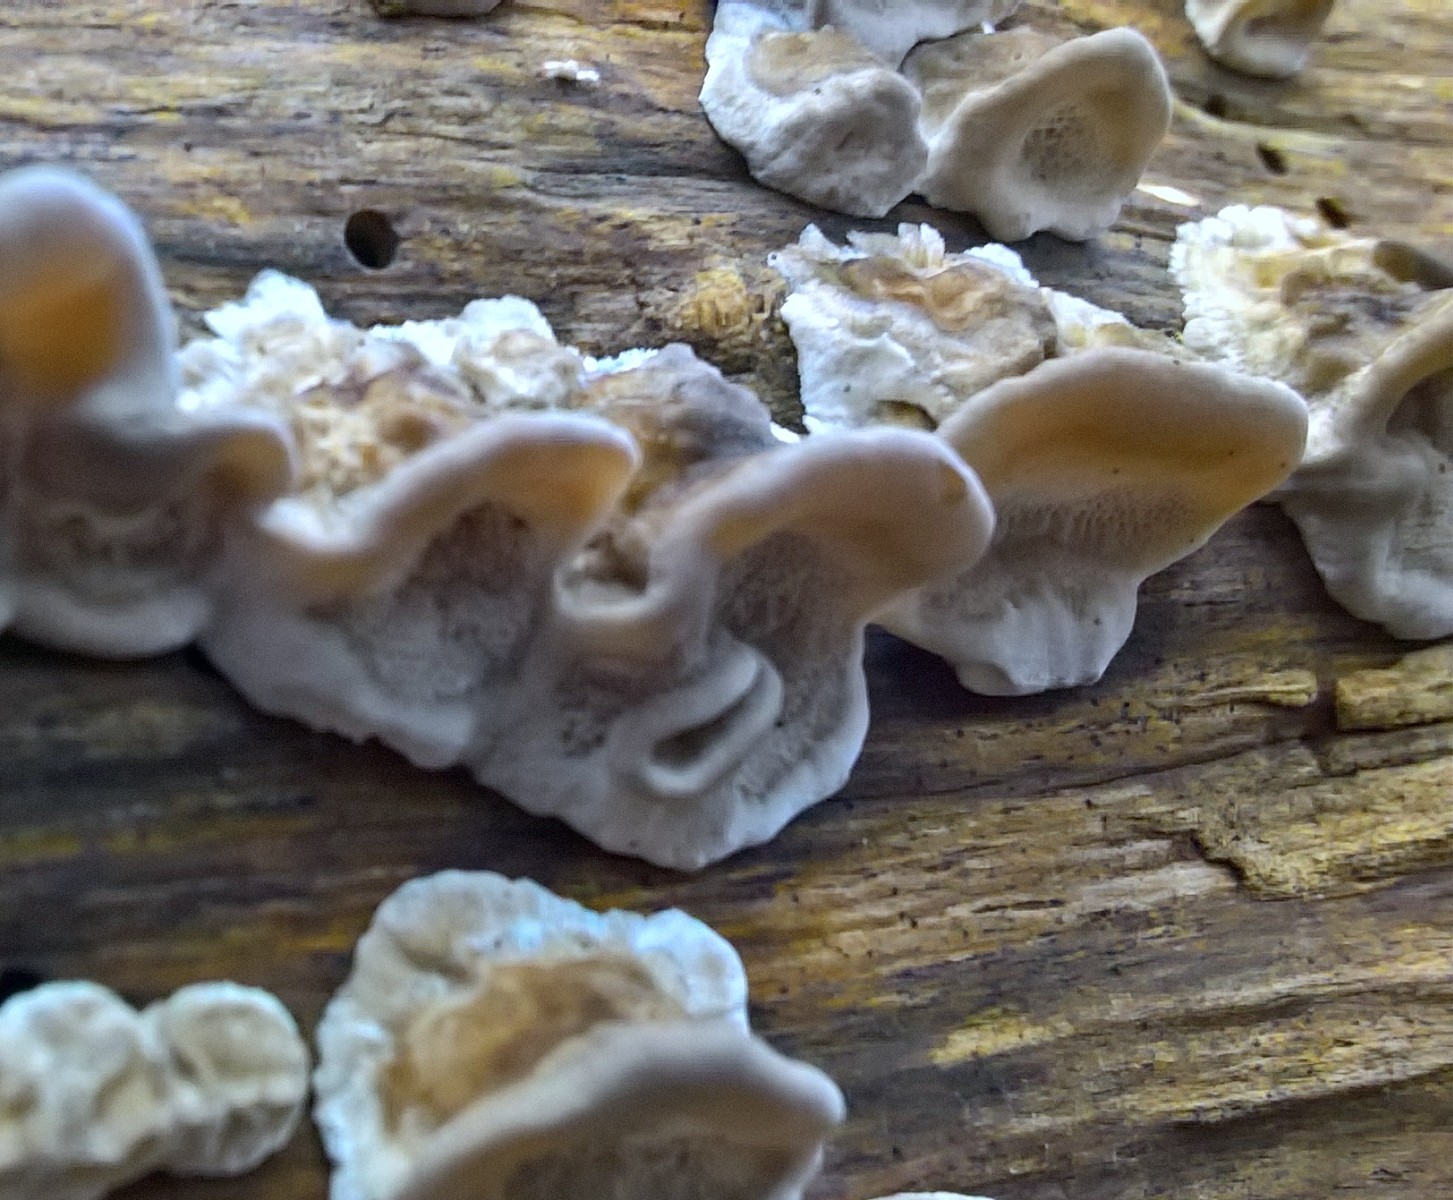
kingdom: Fungi
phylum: Basidiomycota
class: Agaricomycetes
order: Polyporales
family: Phanerochaetaceae
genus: Bjerkandera
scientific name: Bjerkandera adusta
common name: sveden sodporesvamp
